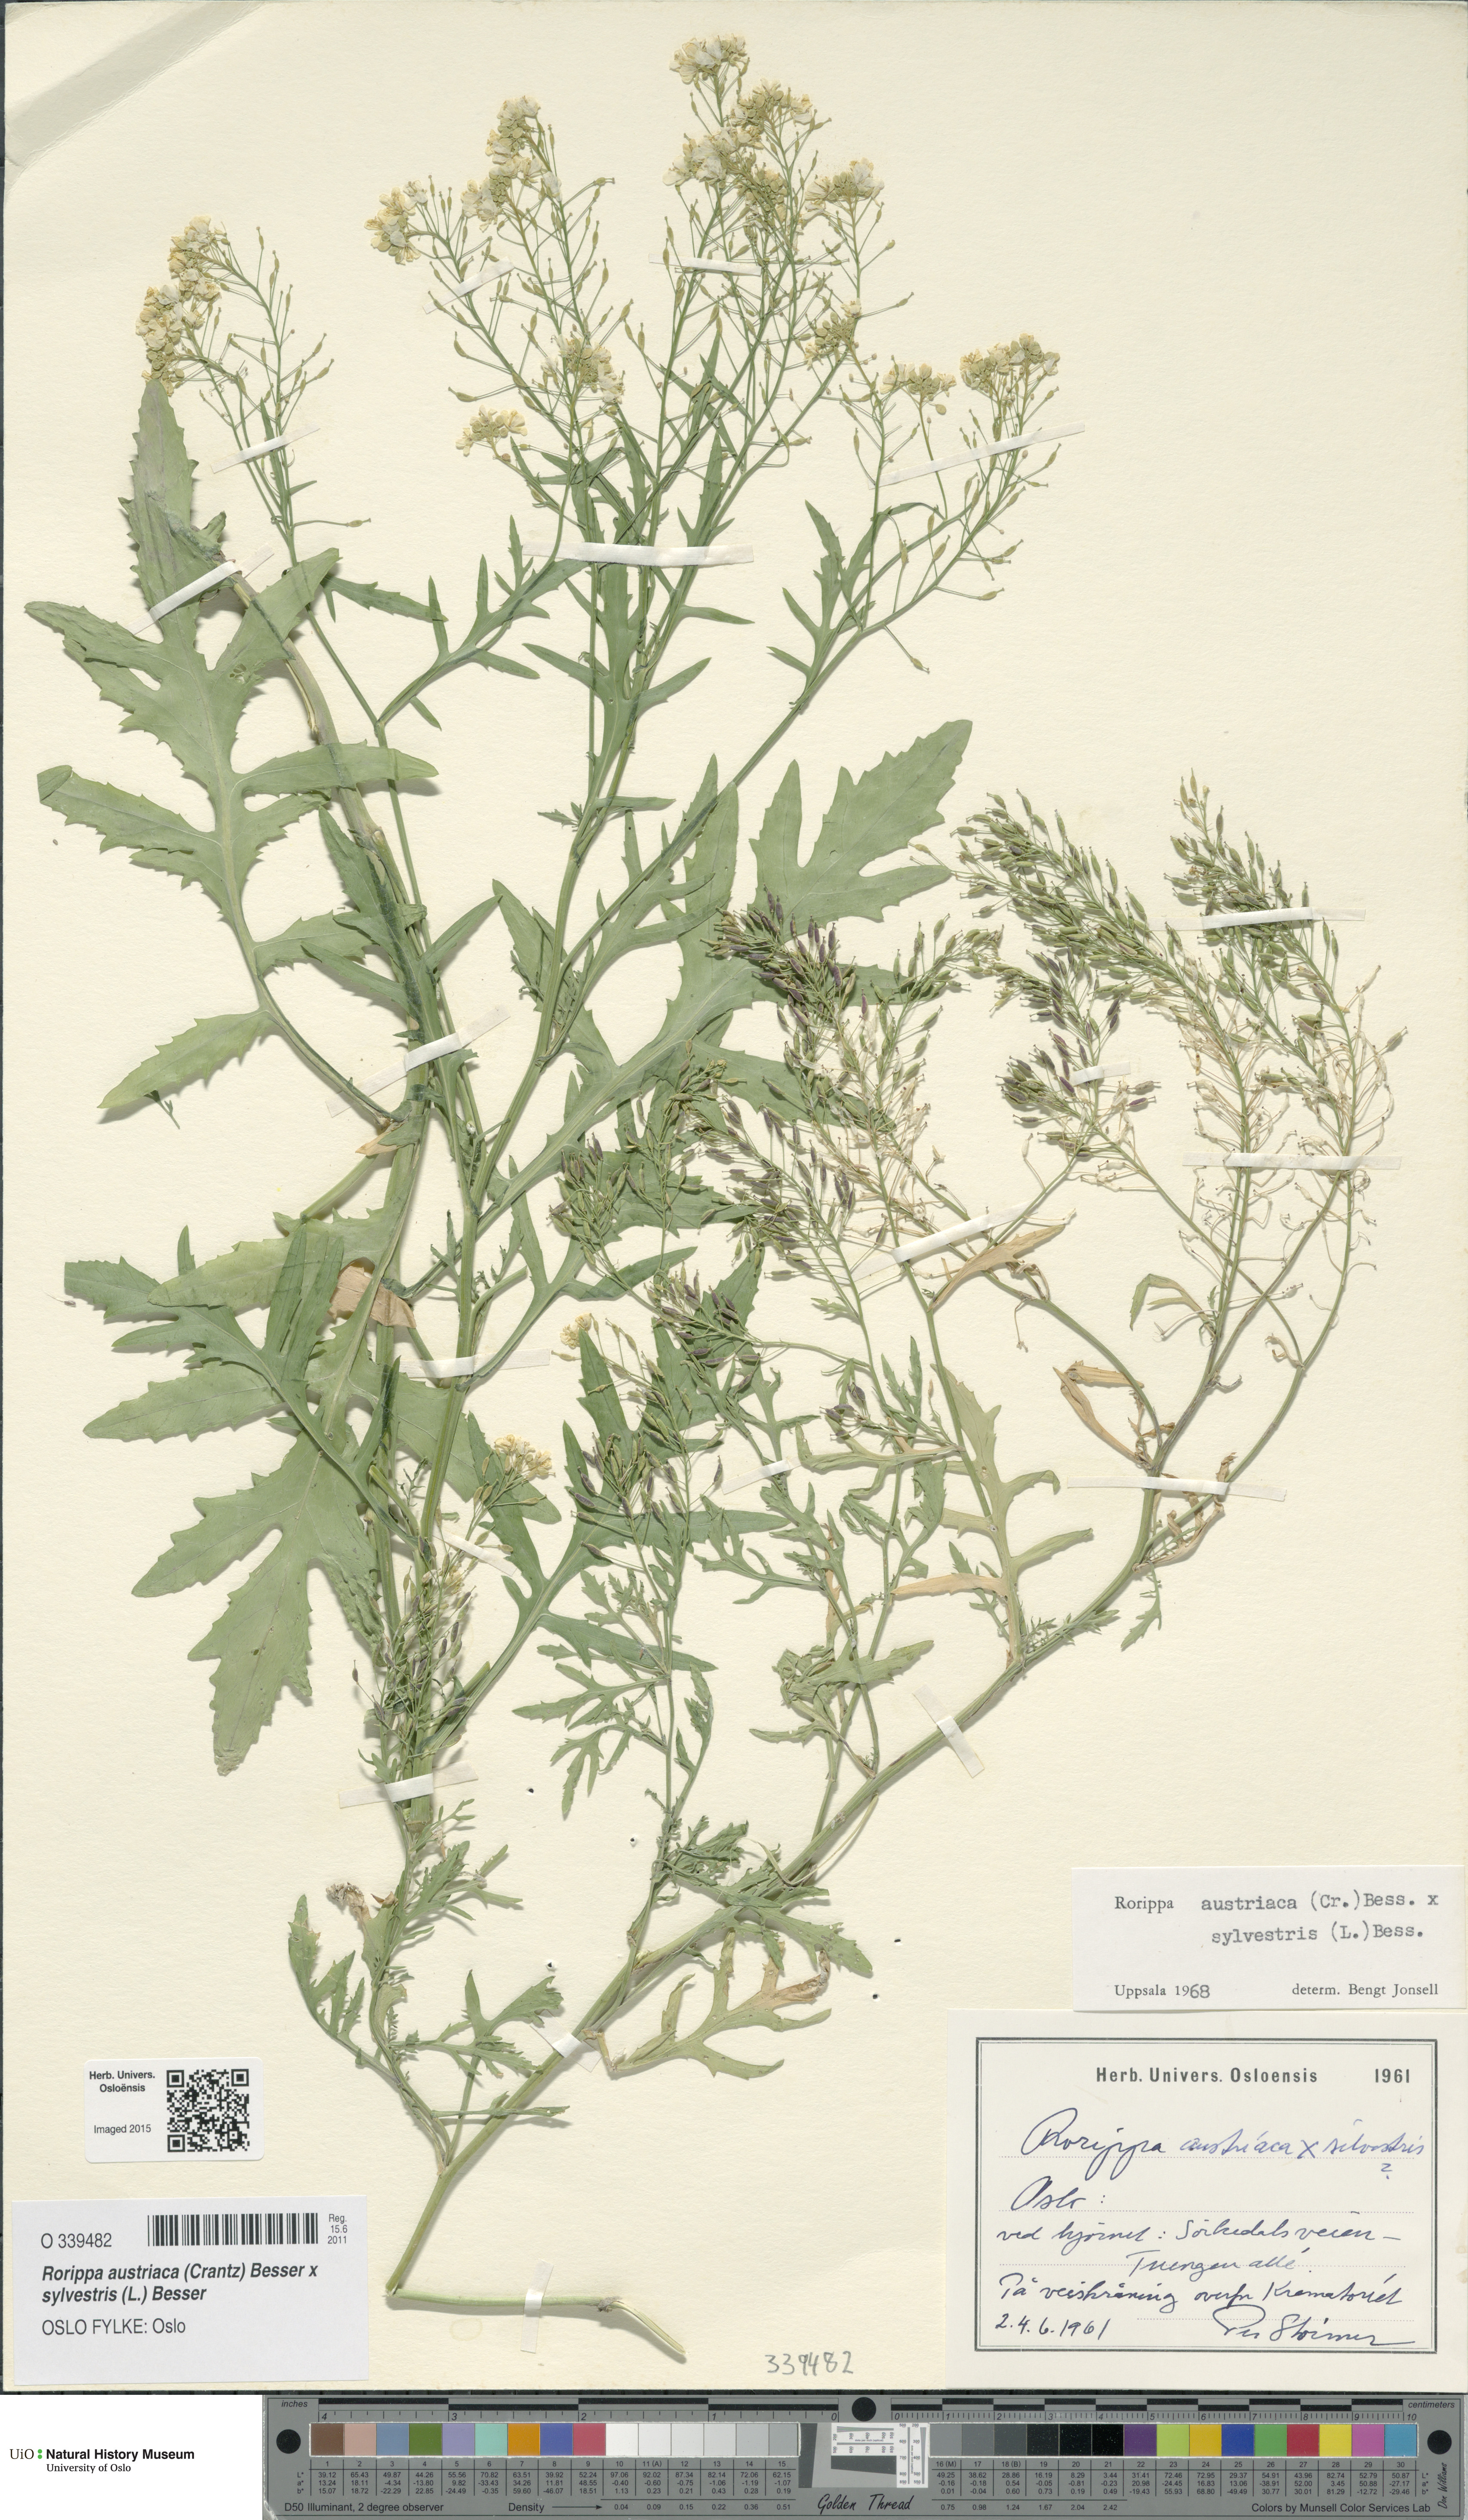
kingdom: Plantae
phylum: Tracheophyta
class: Magnoliopsida
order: Brassicales
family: Brassicaceae
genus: Rorippa
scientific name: Rorippa
